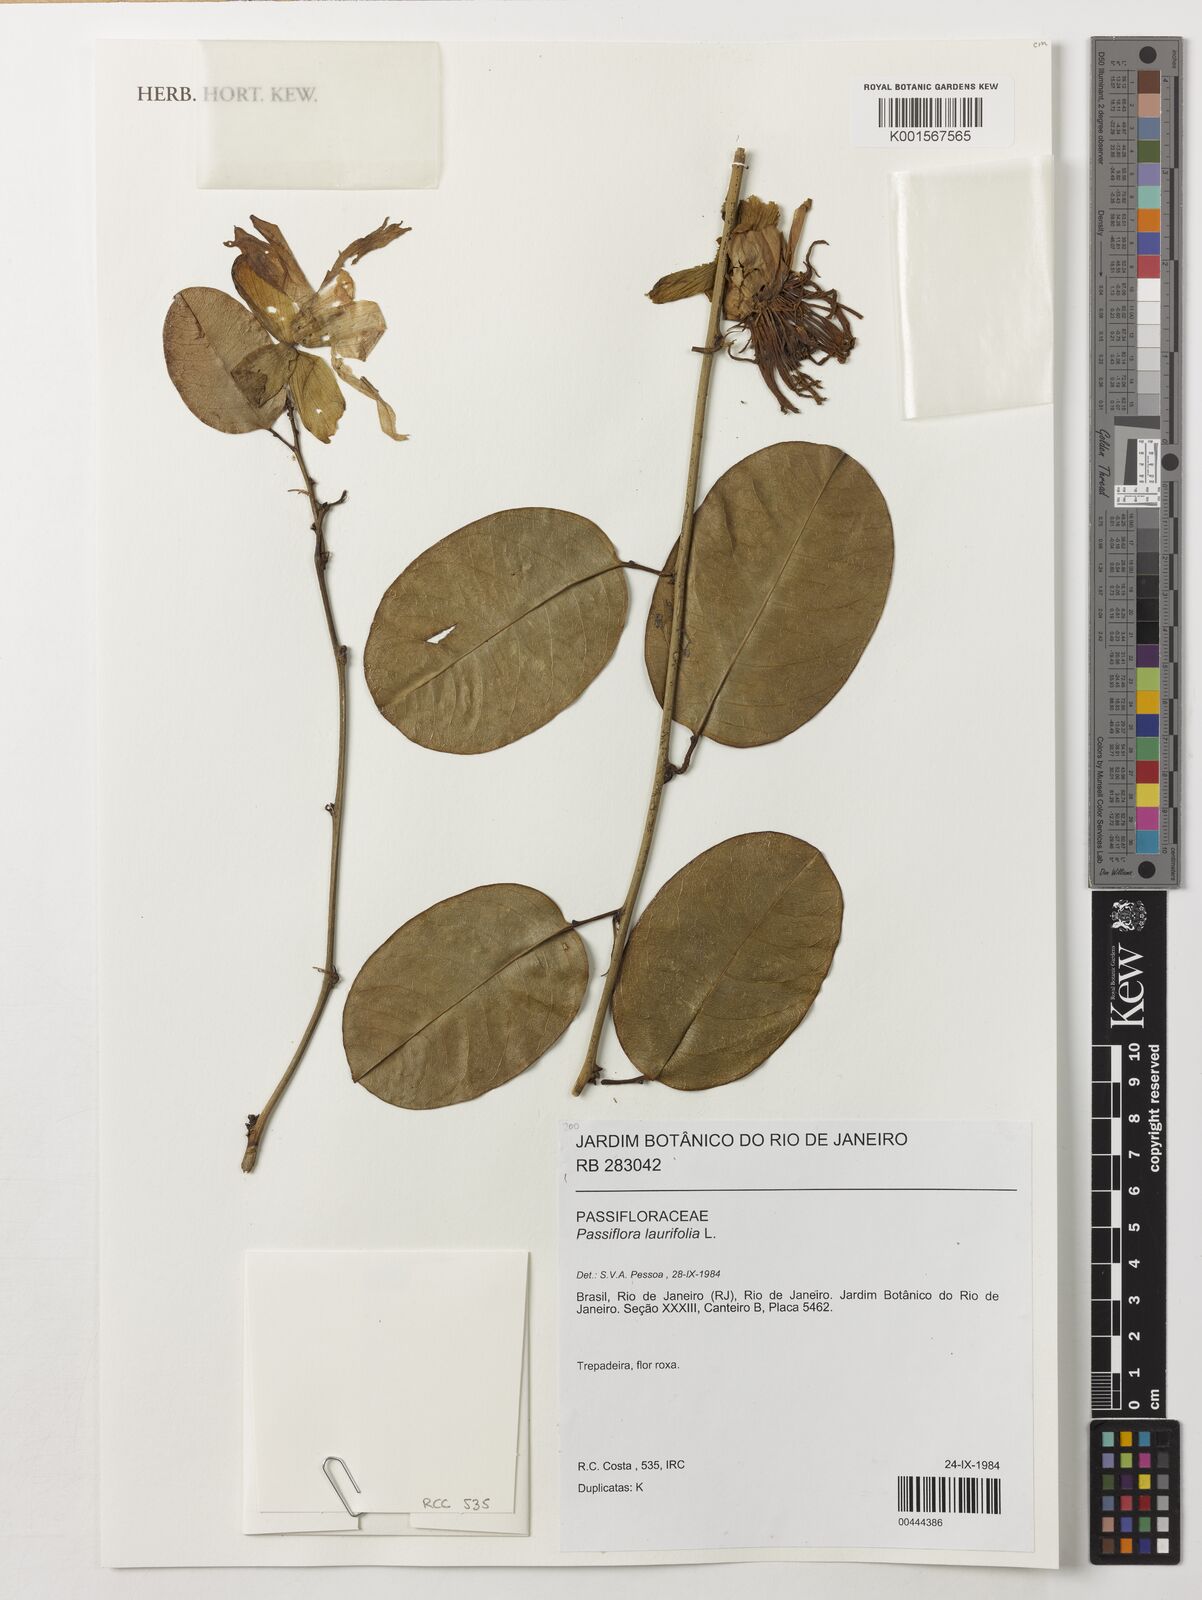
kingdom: Plantae
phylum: Tracheophyta
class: Magnoliopsida
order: Malpighiales
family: Passifloraceae
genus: Passiflora
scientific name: Passiflora laurifolia
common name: Bell apple
